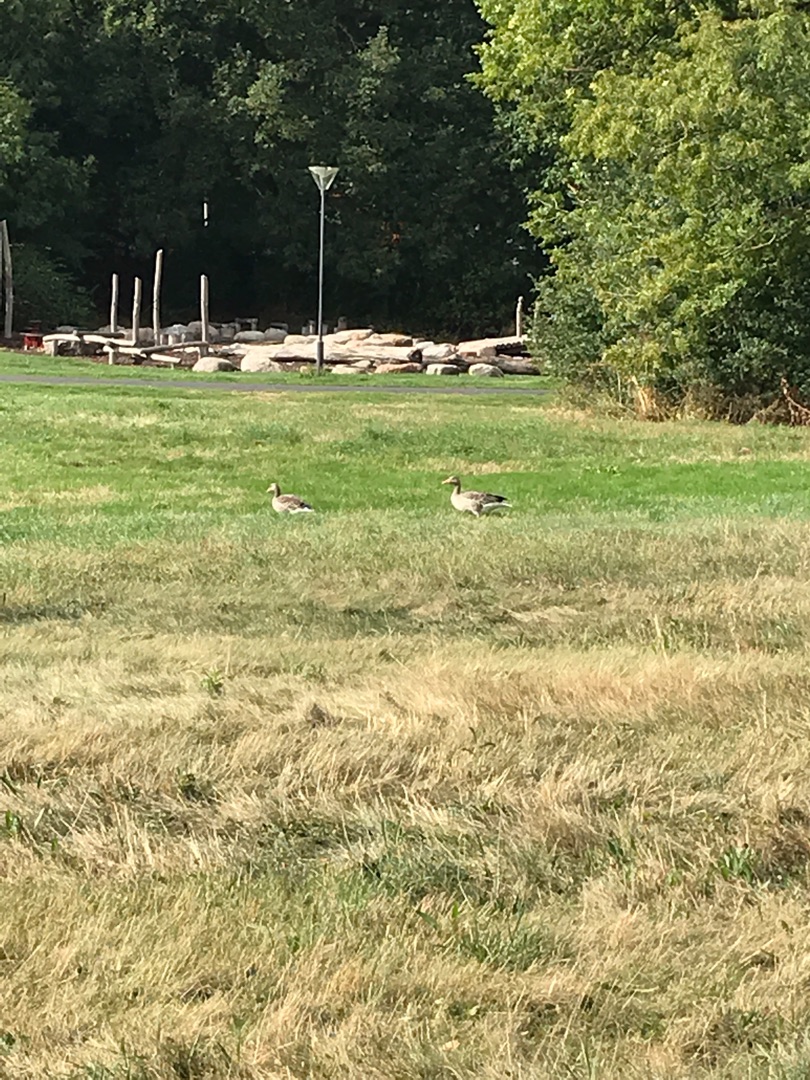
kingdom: Animalia
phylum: Chordata
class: Aves
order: Anseriformes
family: Anatidae
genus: Anser
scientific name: Anser anser
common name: Grågås
